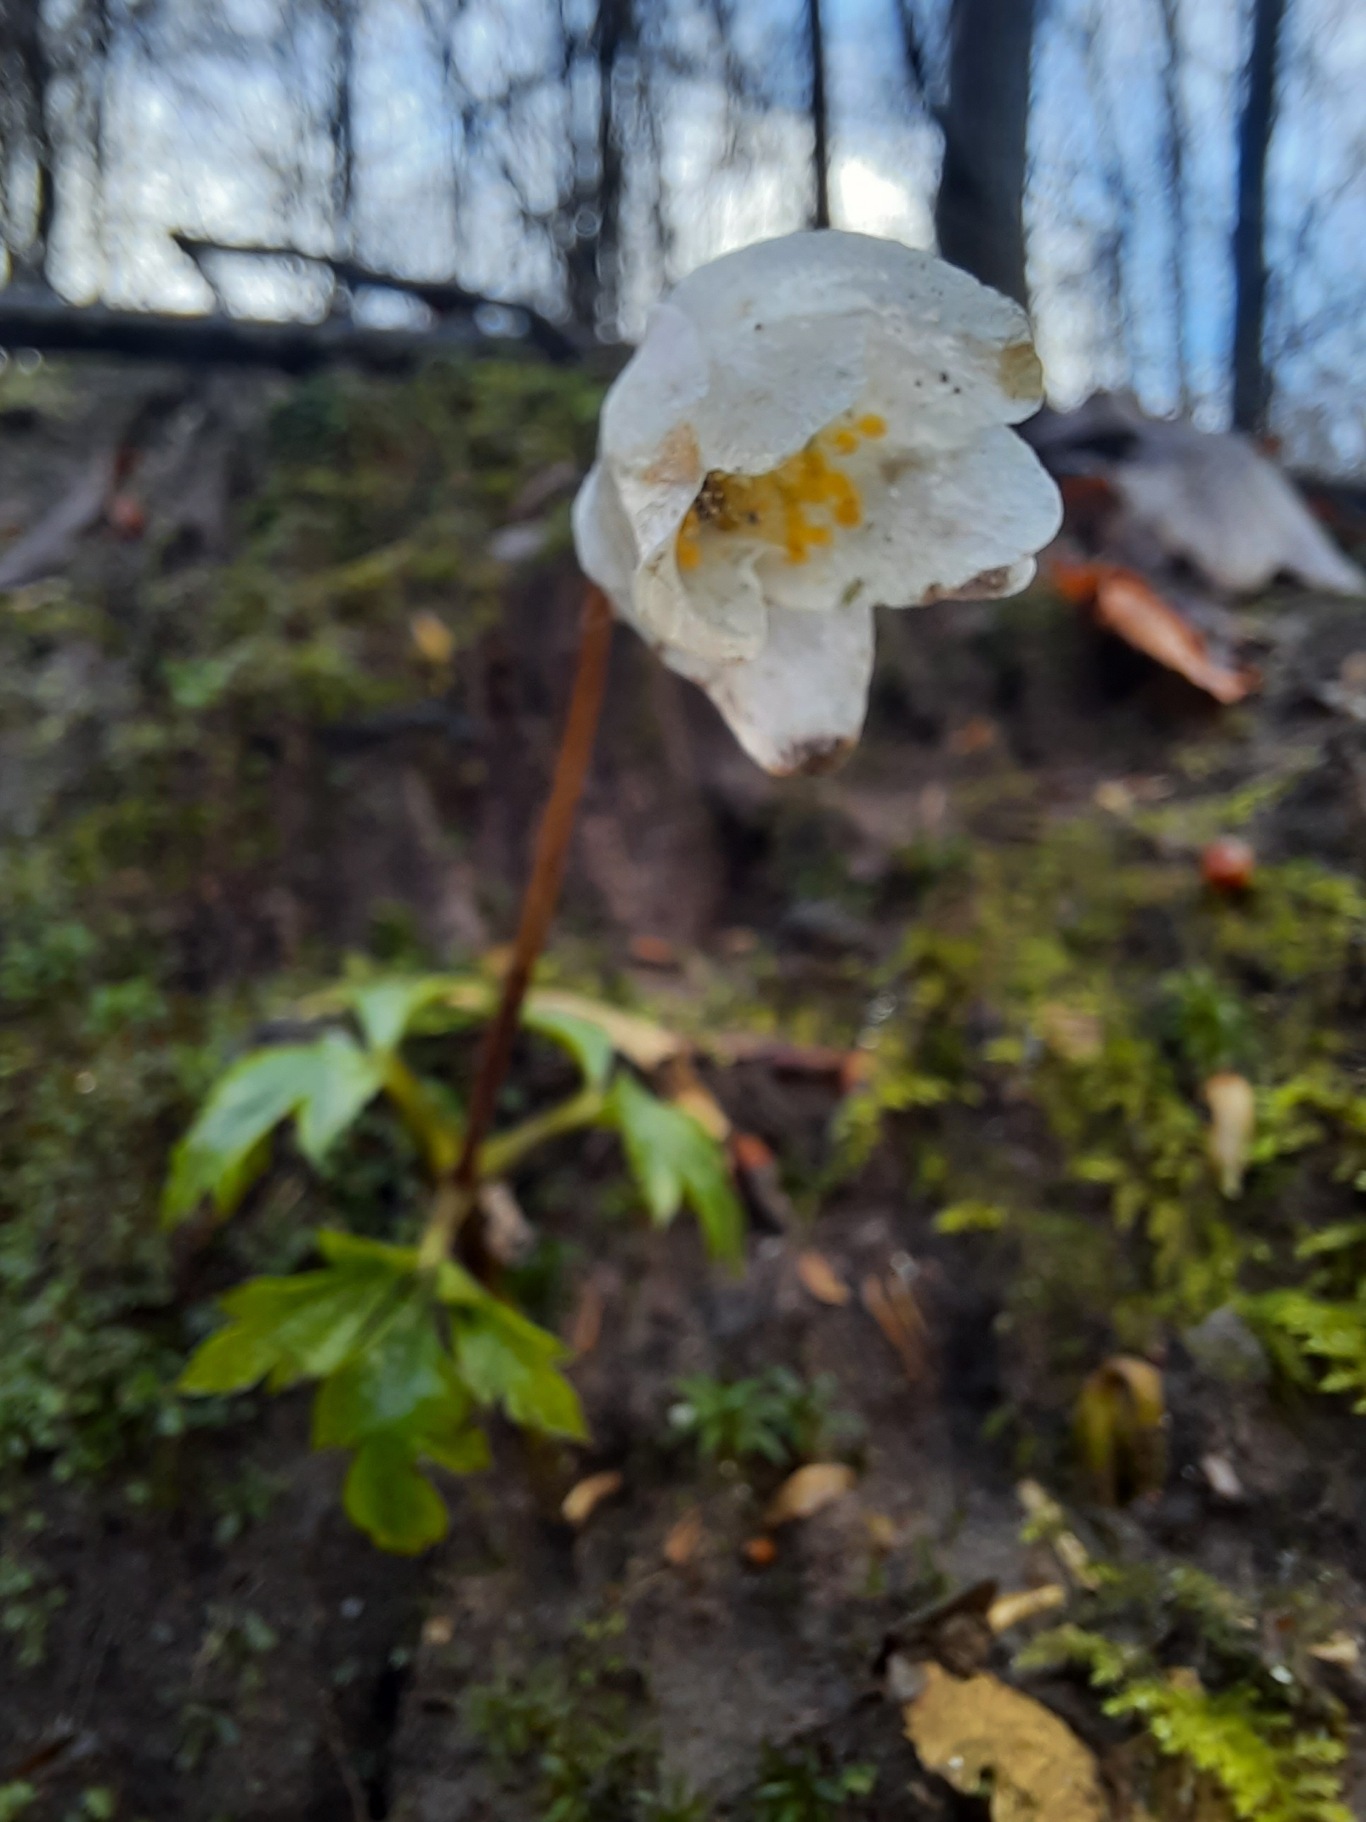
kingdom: Plantae
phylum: Tracheophyta
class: Magnoliopsida
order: Ranunculales
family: Ranunculaceae
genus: Anemone
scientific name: Anemone nemorosa
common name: Hvid anemone
